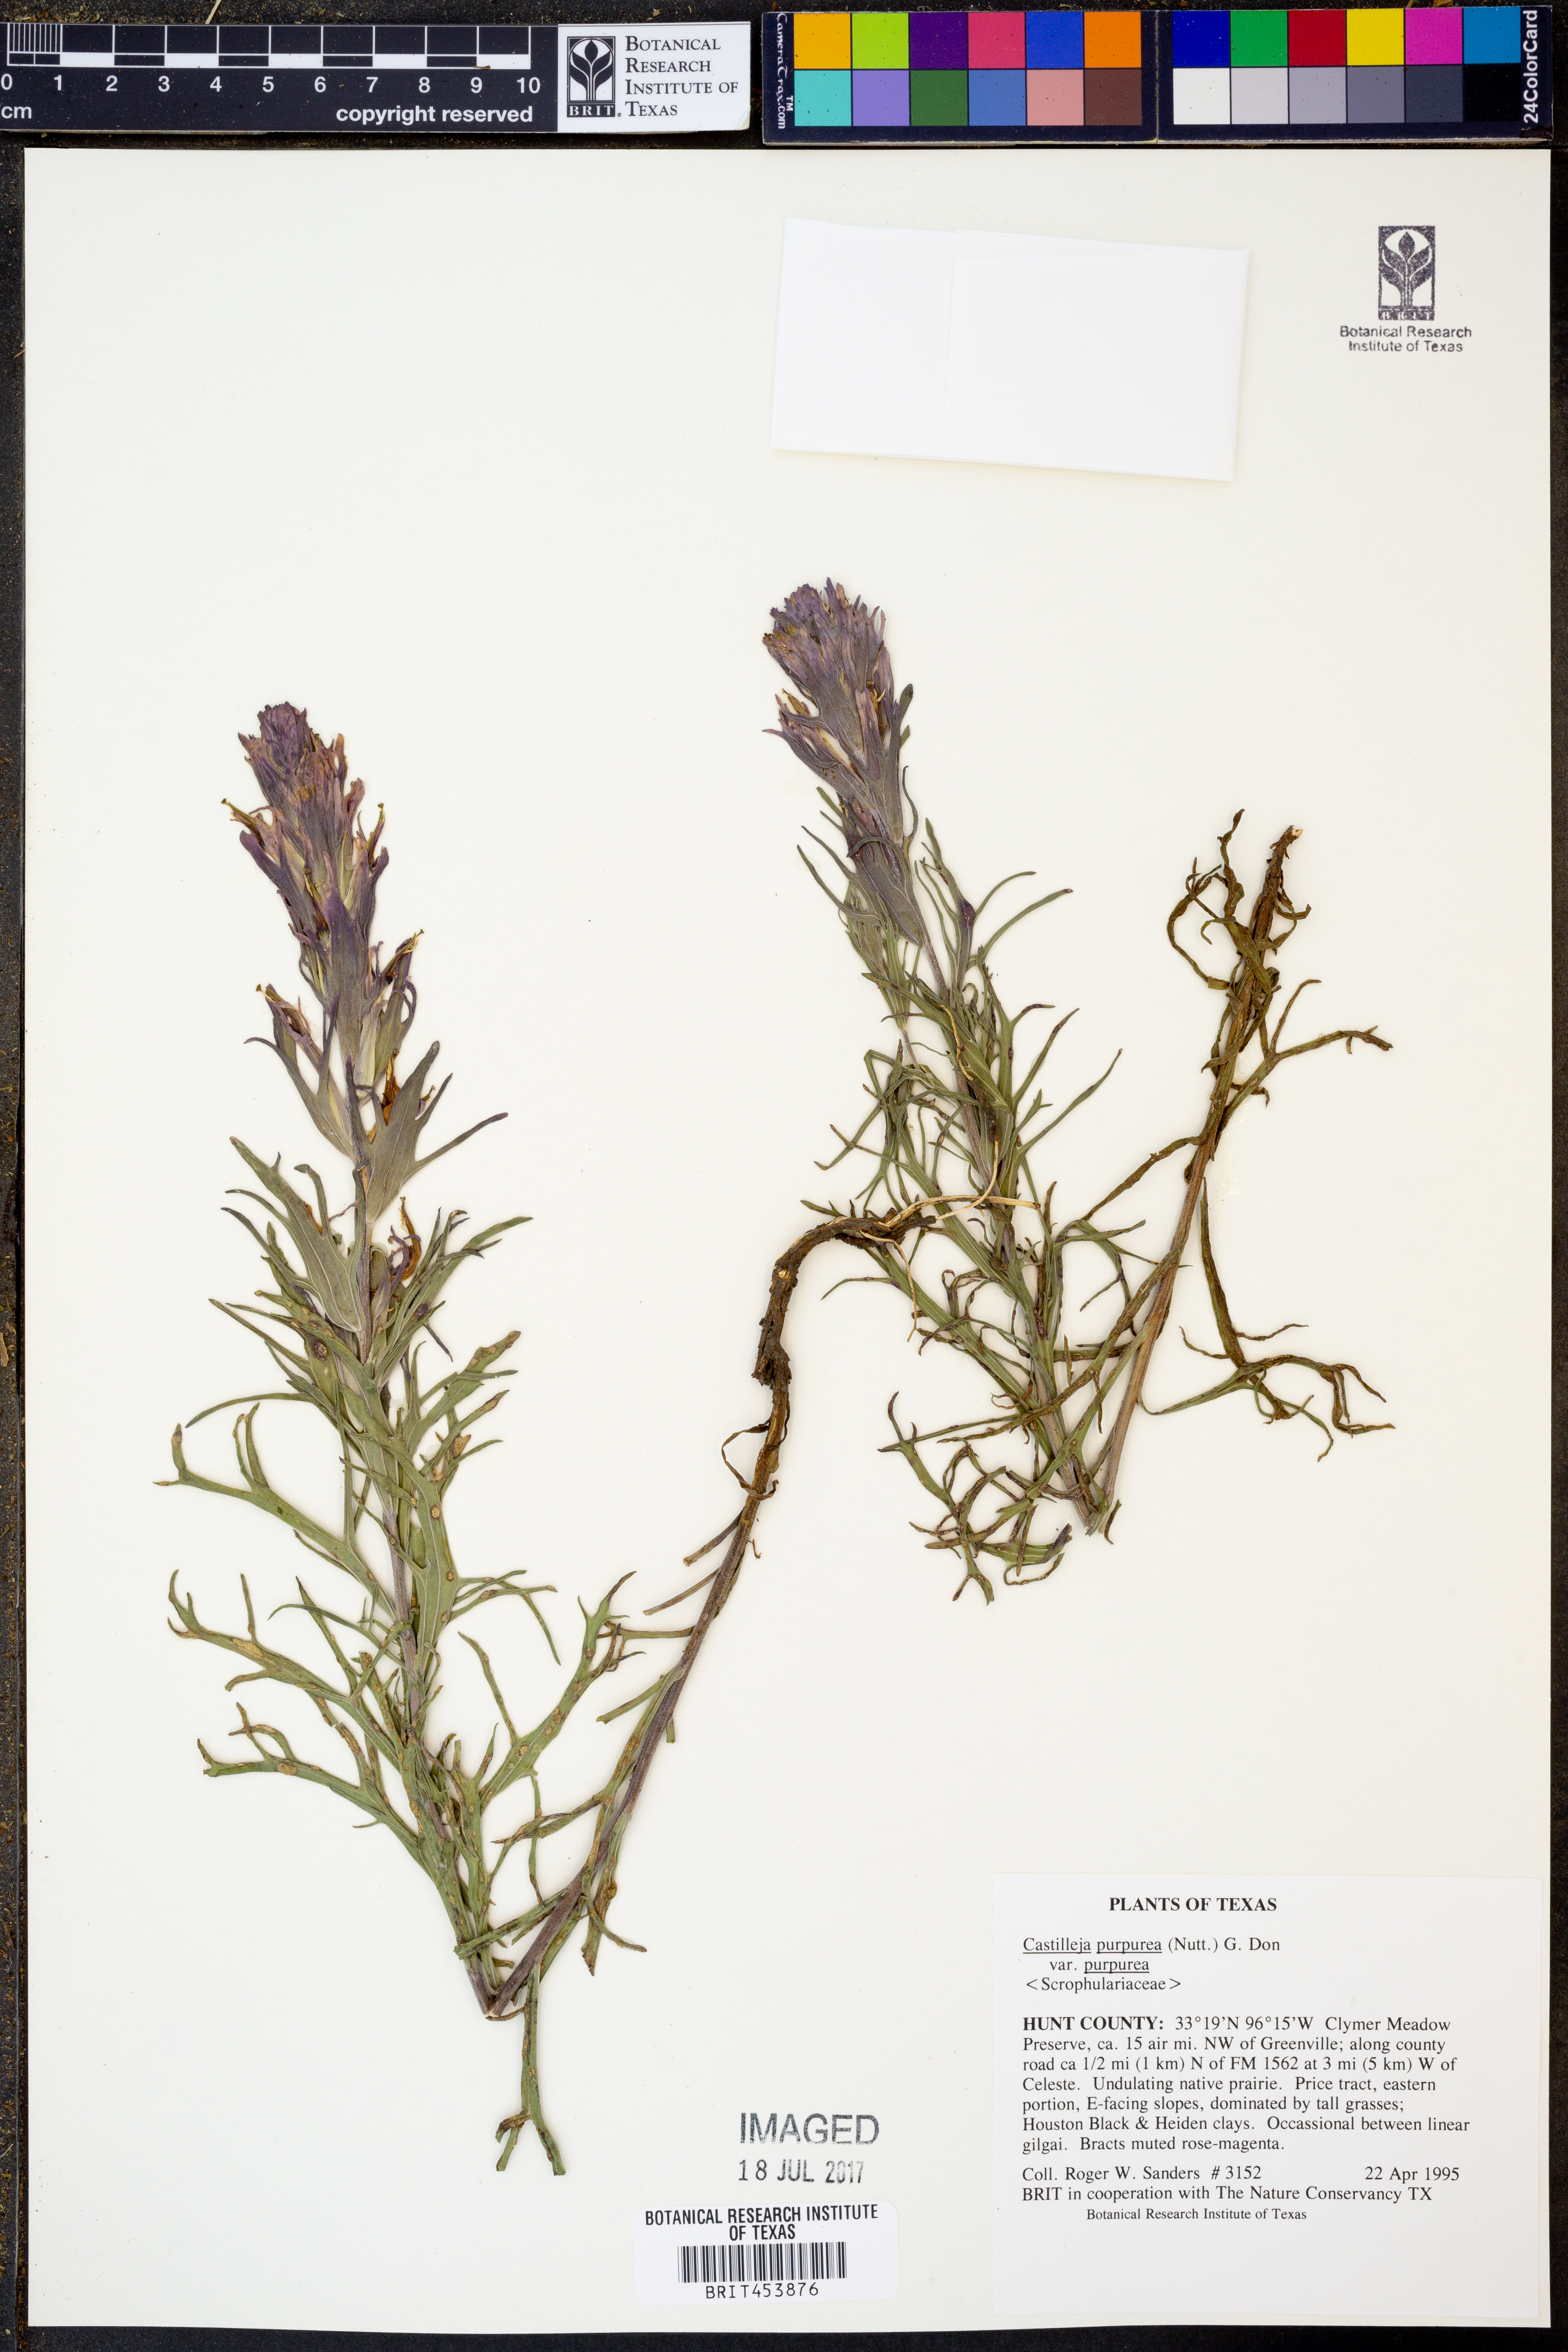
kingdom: Plantae
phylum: Tracheophyta
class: Magnoliopsida
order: Lamiales
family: Orobanchaceae
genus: Castilleja
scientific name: Castilleja purpurea
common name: Plains paintbrush
